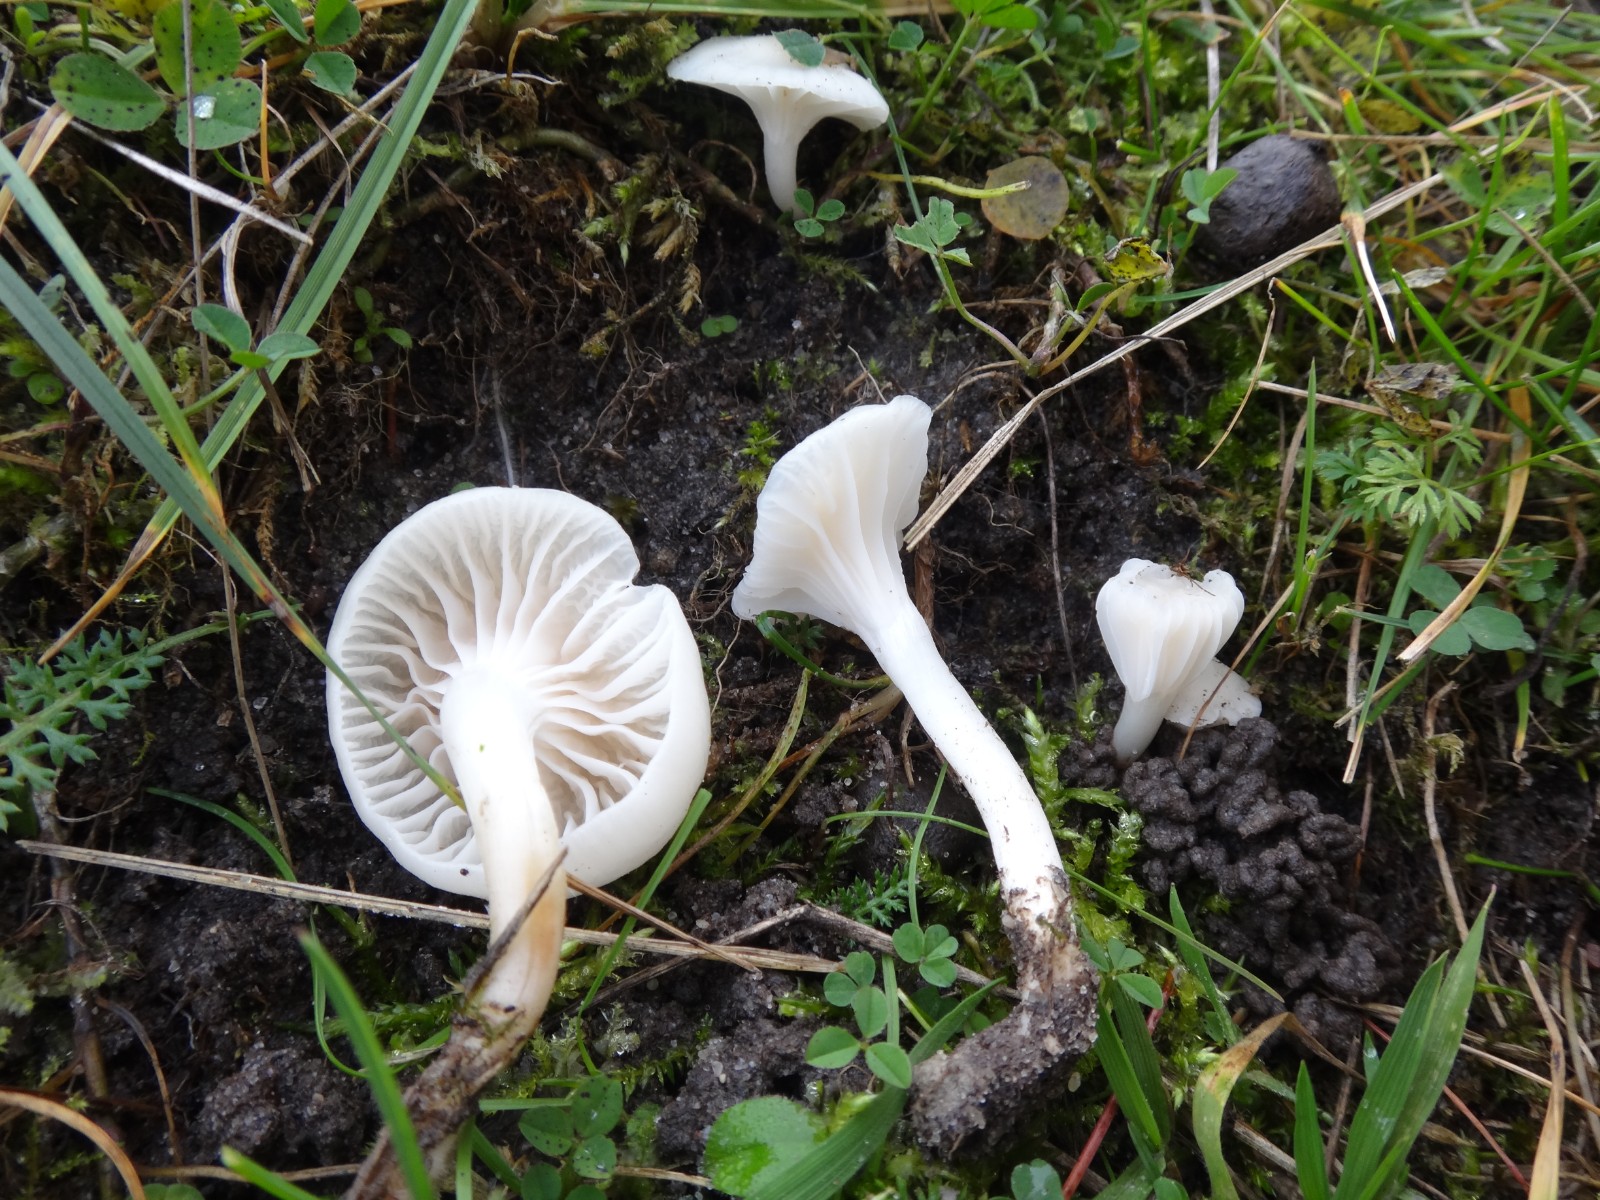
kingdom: Fungi
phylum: Basidiomycota
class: Agaricomycetes
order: Agaricales
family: Hygrophoraceae
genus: Cuphophyllus
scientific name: Cuphophyllus virgineus
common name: snehvid vokshat
